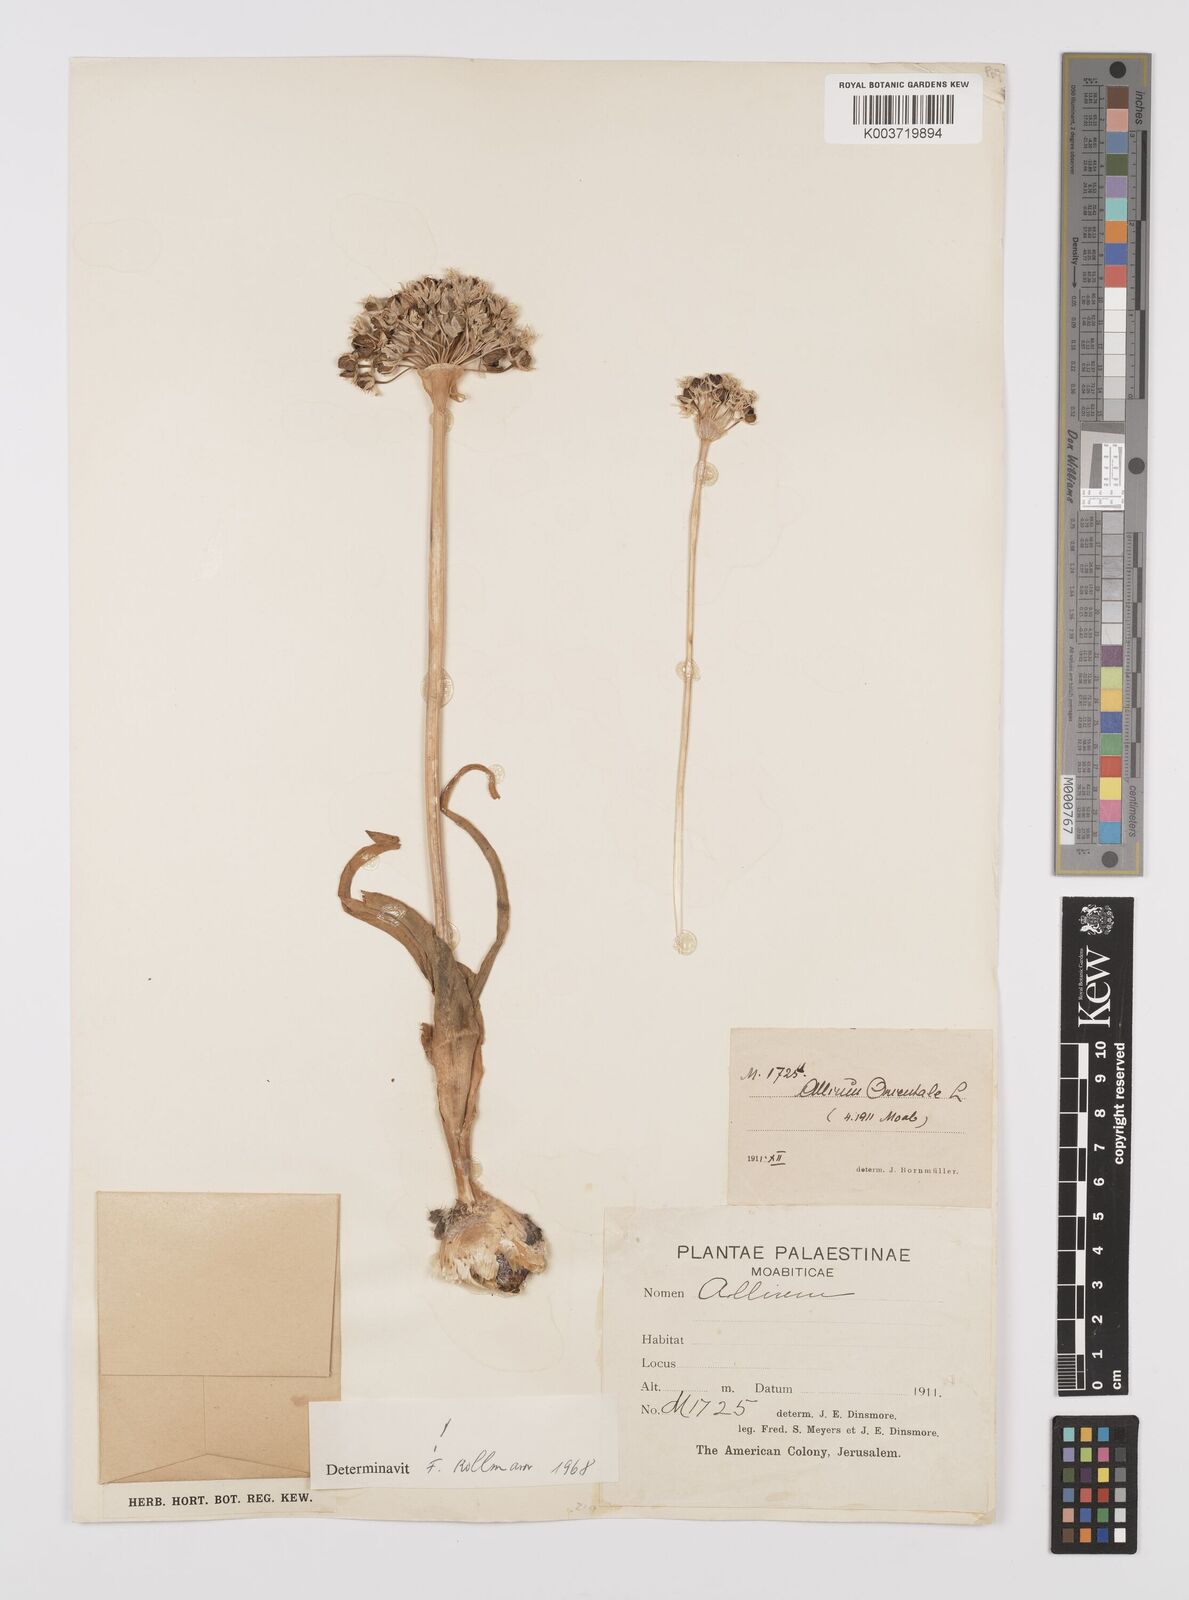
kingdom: Plantae
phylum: Tracheophyta
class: Liliopsida
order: Asparagales
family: Amaryllidaceae
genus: Allium
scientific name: Allium orientale
